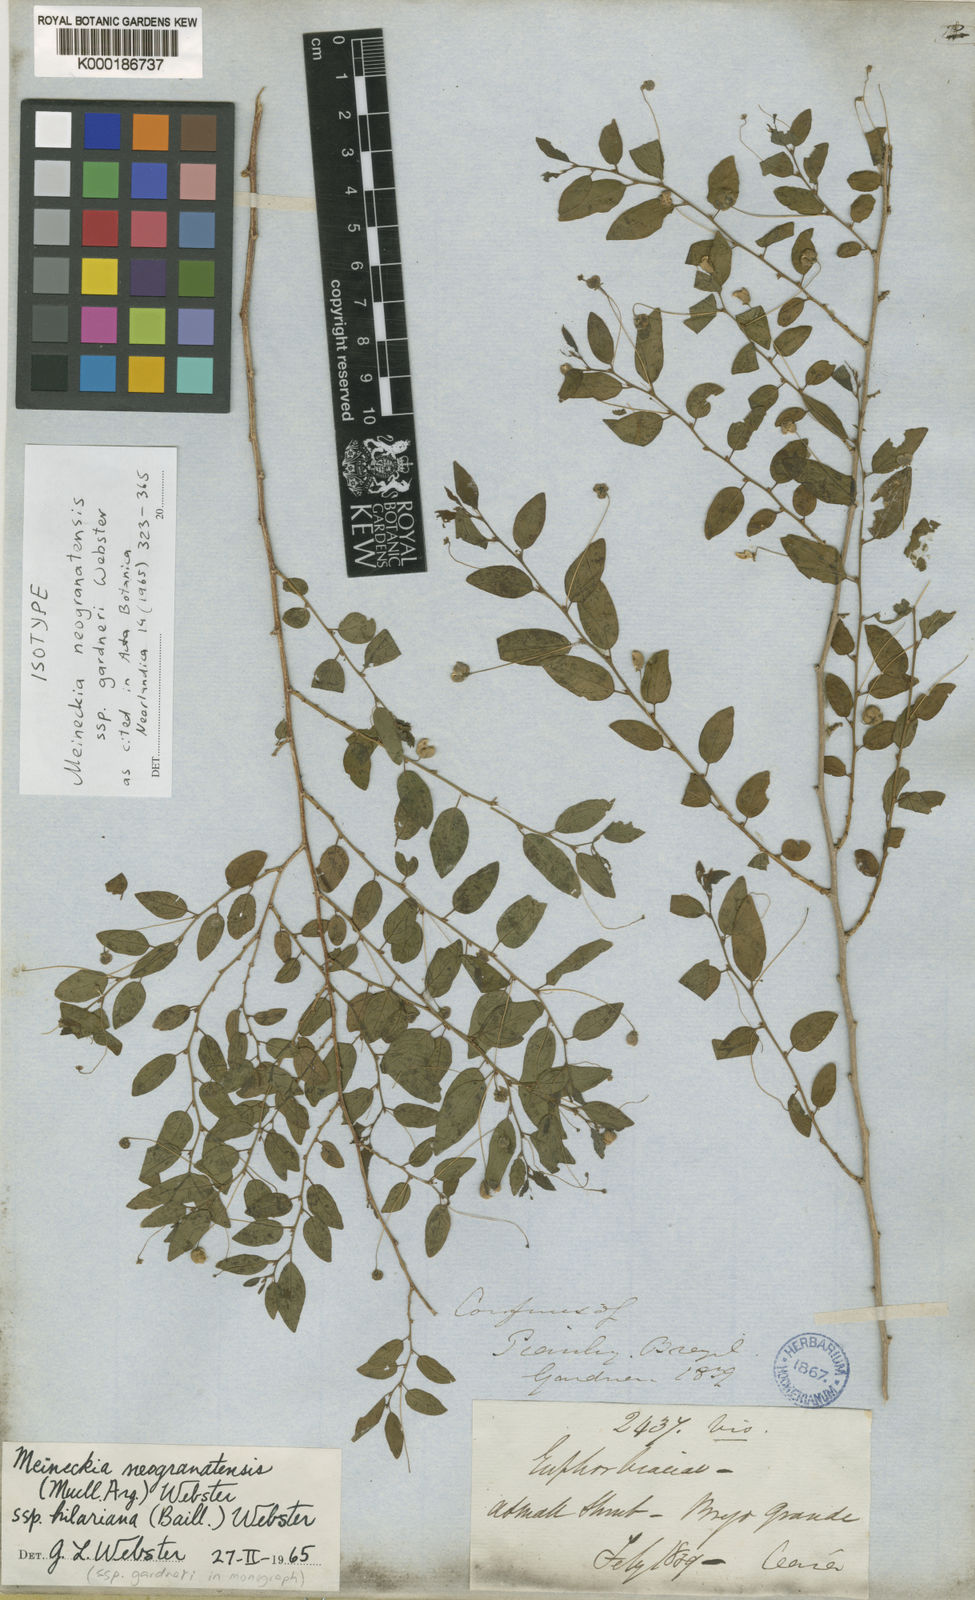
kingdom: Plantae
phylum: Tracheophyta
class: Magnoliopsida
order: Malpighiales
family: Phyllanthaceae
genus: Meineckia
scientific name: Meineckia neogranatensis
